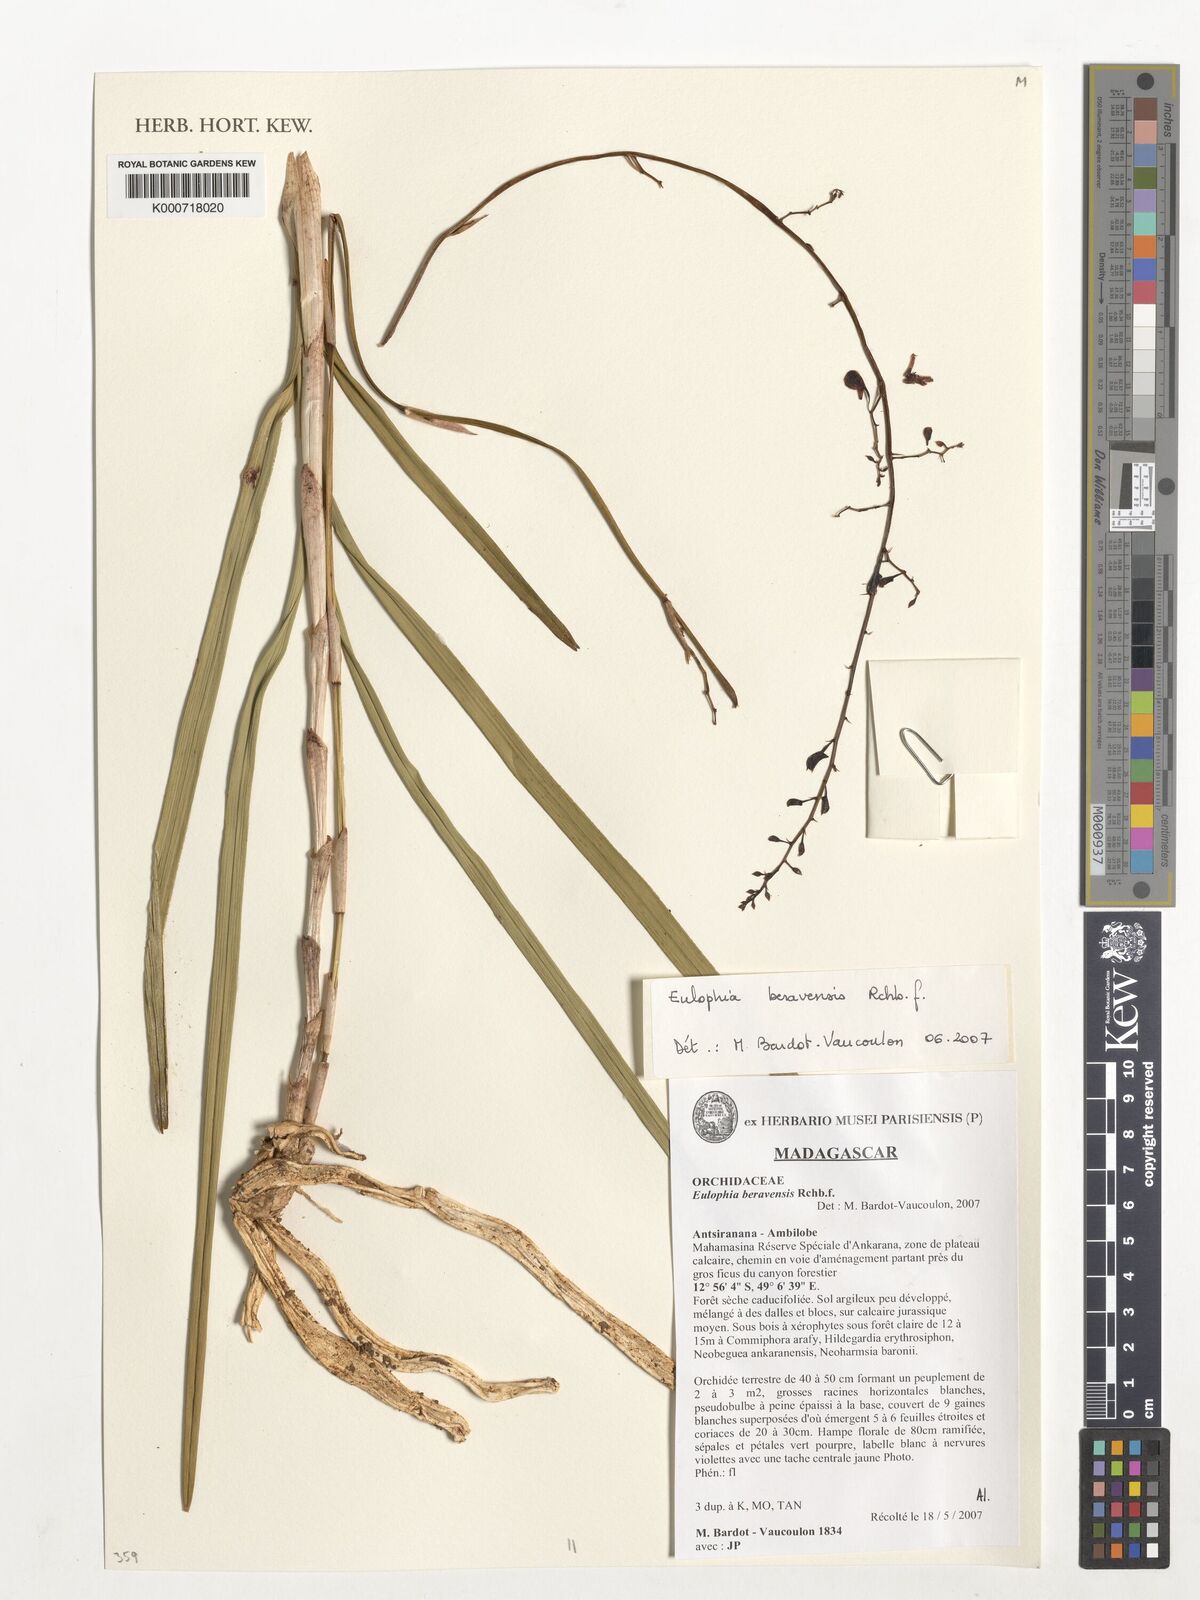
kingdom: Plantae
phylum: Tracheophyta
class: Liliopsida
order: Asparagales
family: Orchidaceae
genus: Eulophia
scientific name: Eulophia beravensis
